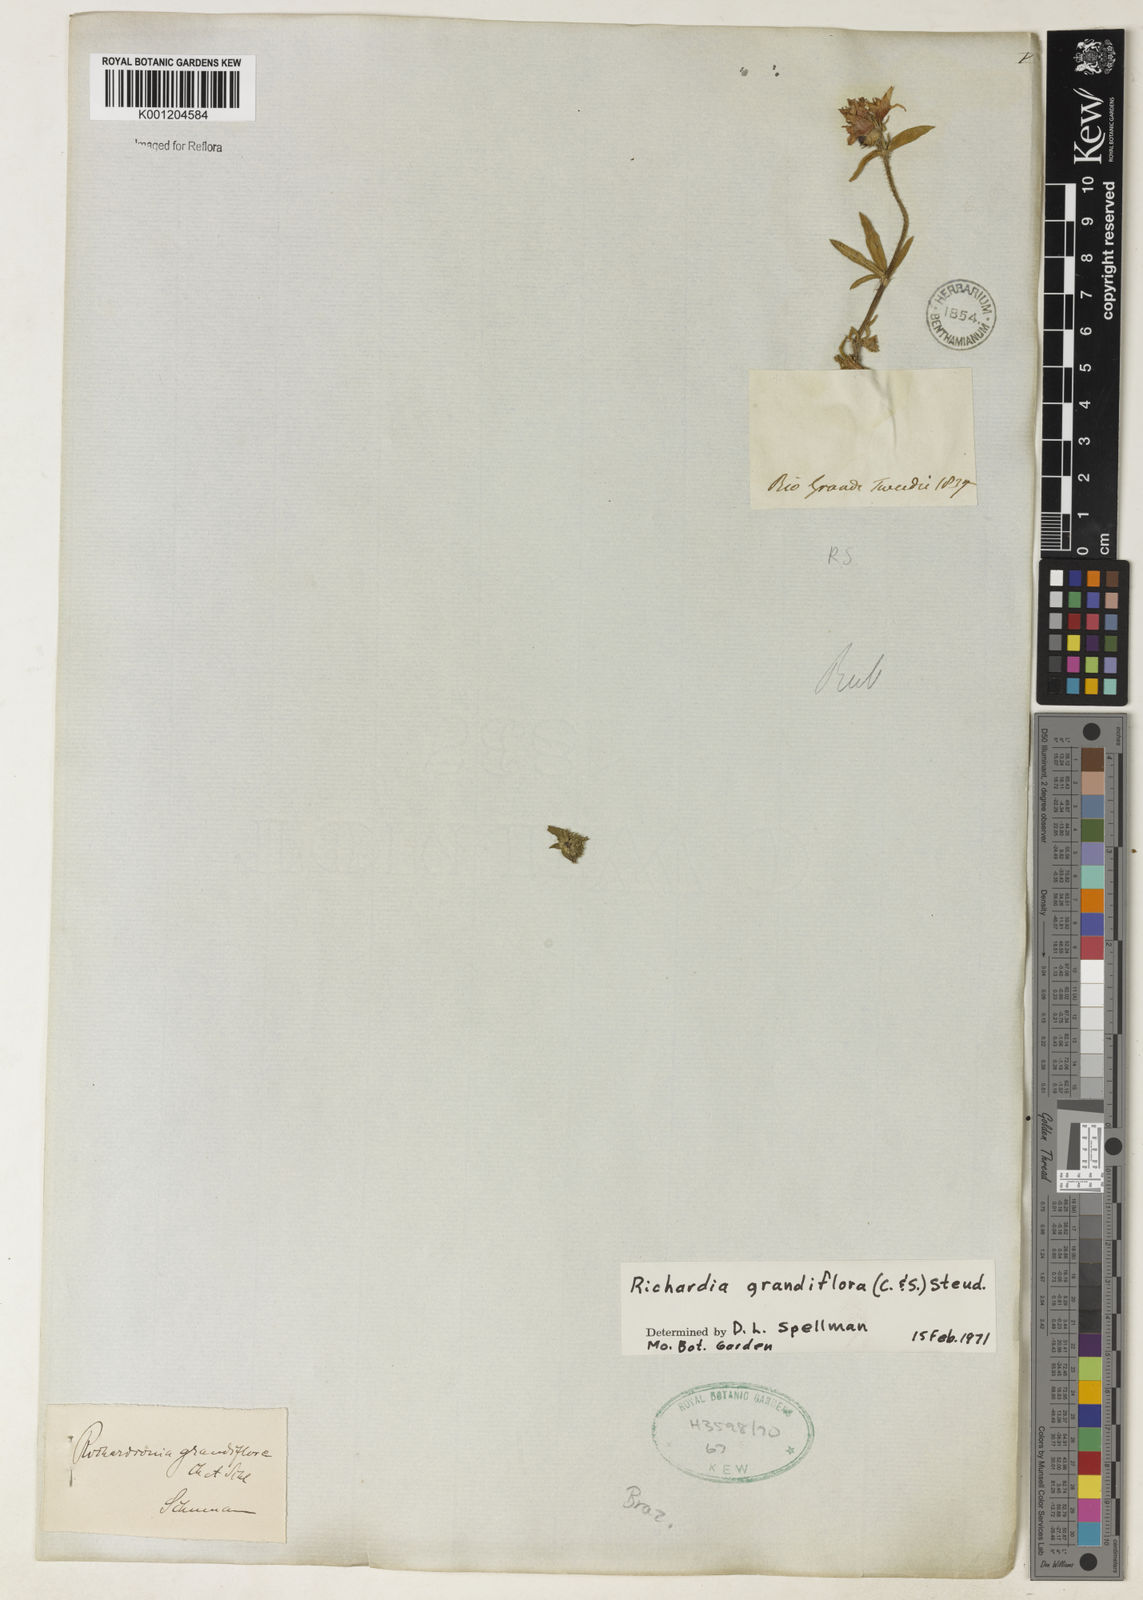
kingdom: Plantae
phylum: Tracheophyta
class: Magnoliopsida
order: Gentianales
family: Rubiaceae
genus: Richardia
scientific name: Richardia grandiflora
